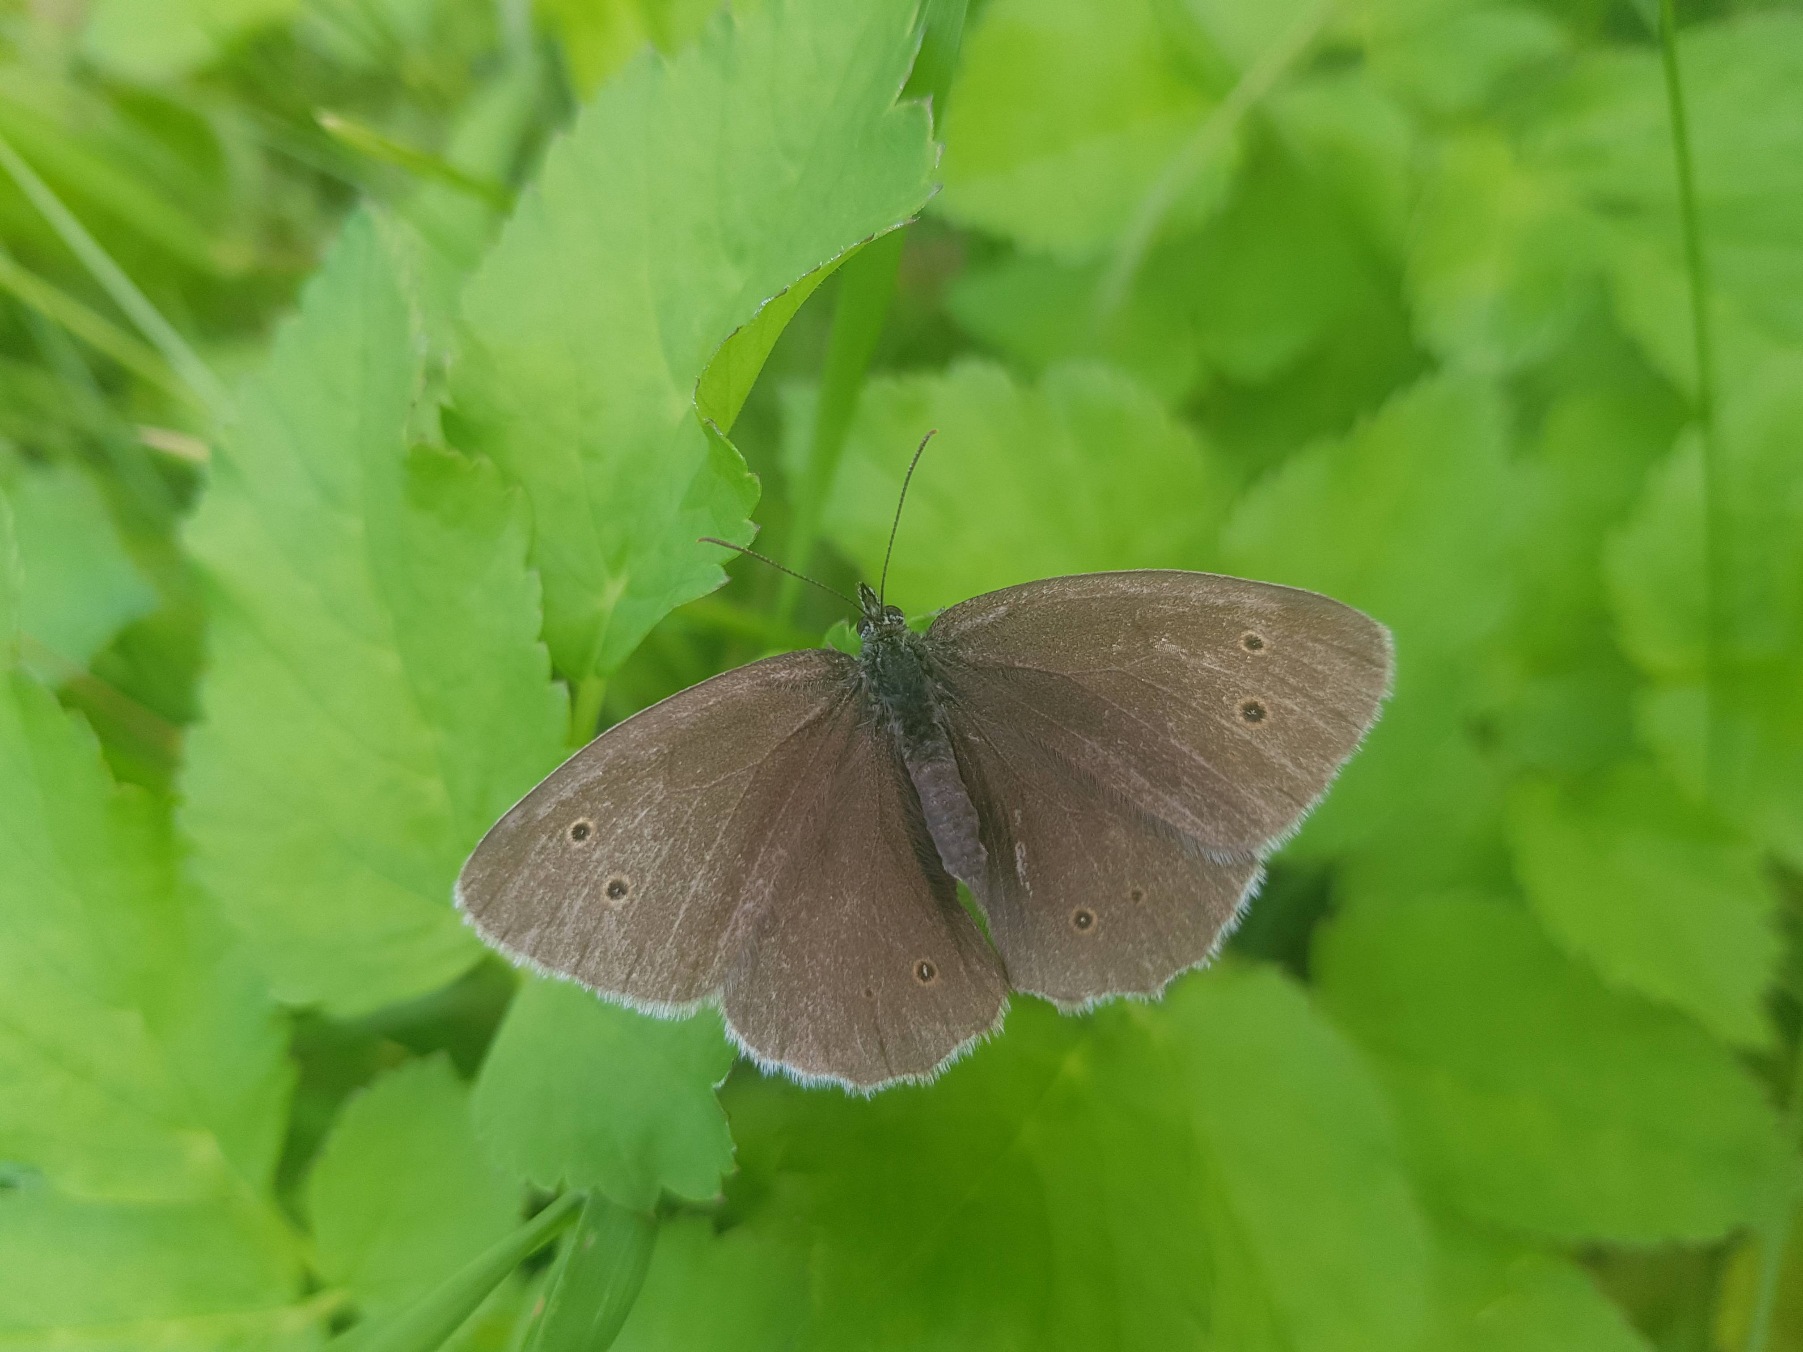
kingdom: Animalia
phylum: Arthropoda
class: Insecta
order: Lepidoptera
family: Nymphalidae
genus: Aphantopus
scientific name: Aphantopus hyperantus
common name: Engrandøje
